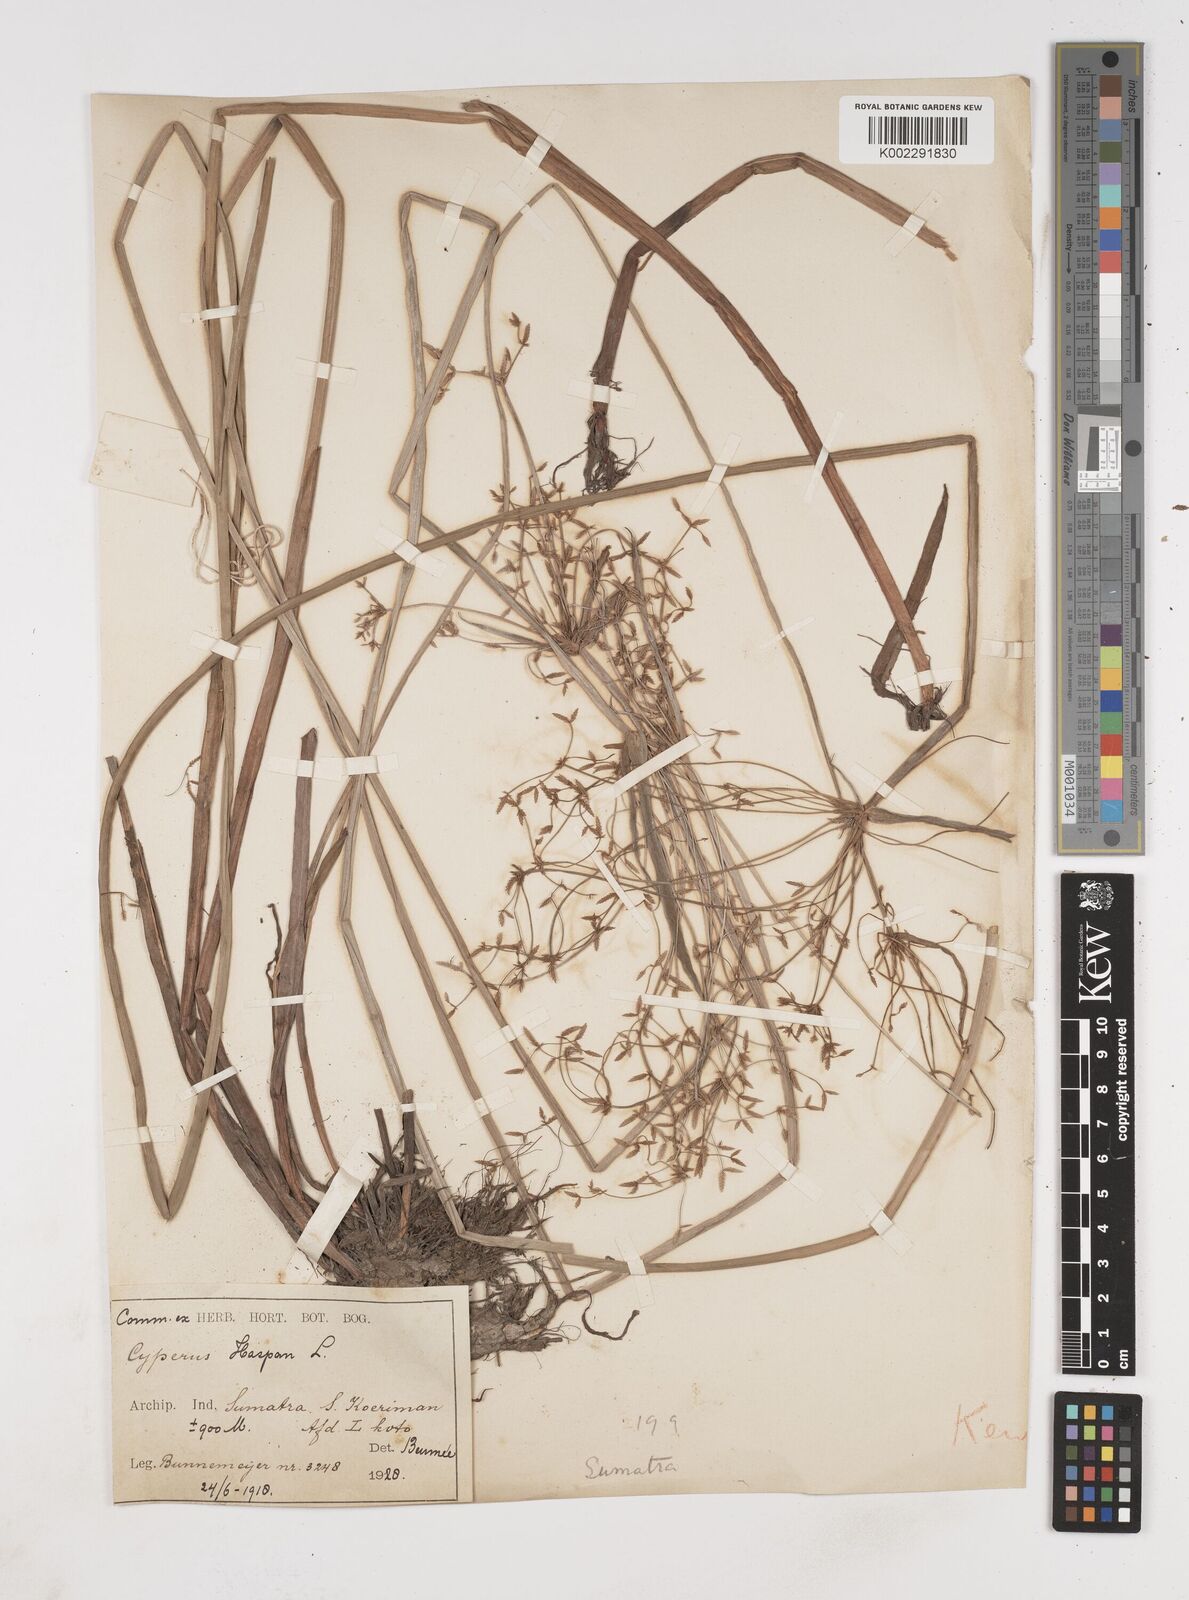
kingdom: Plantae
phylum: Tracheophyta
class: Liliopsida
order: Poales
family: Cyperaceae
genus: Cyperus
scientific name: Cyperus haspan
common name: Haspan flatsedge
